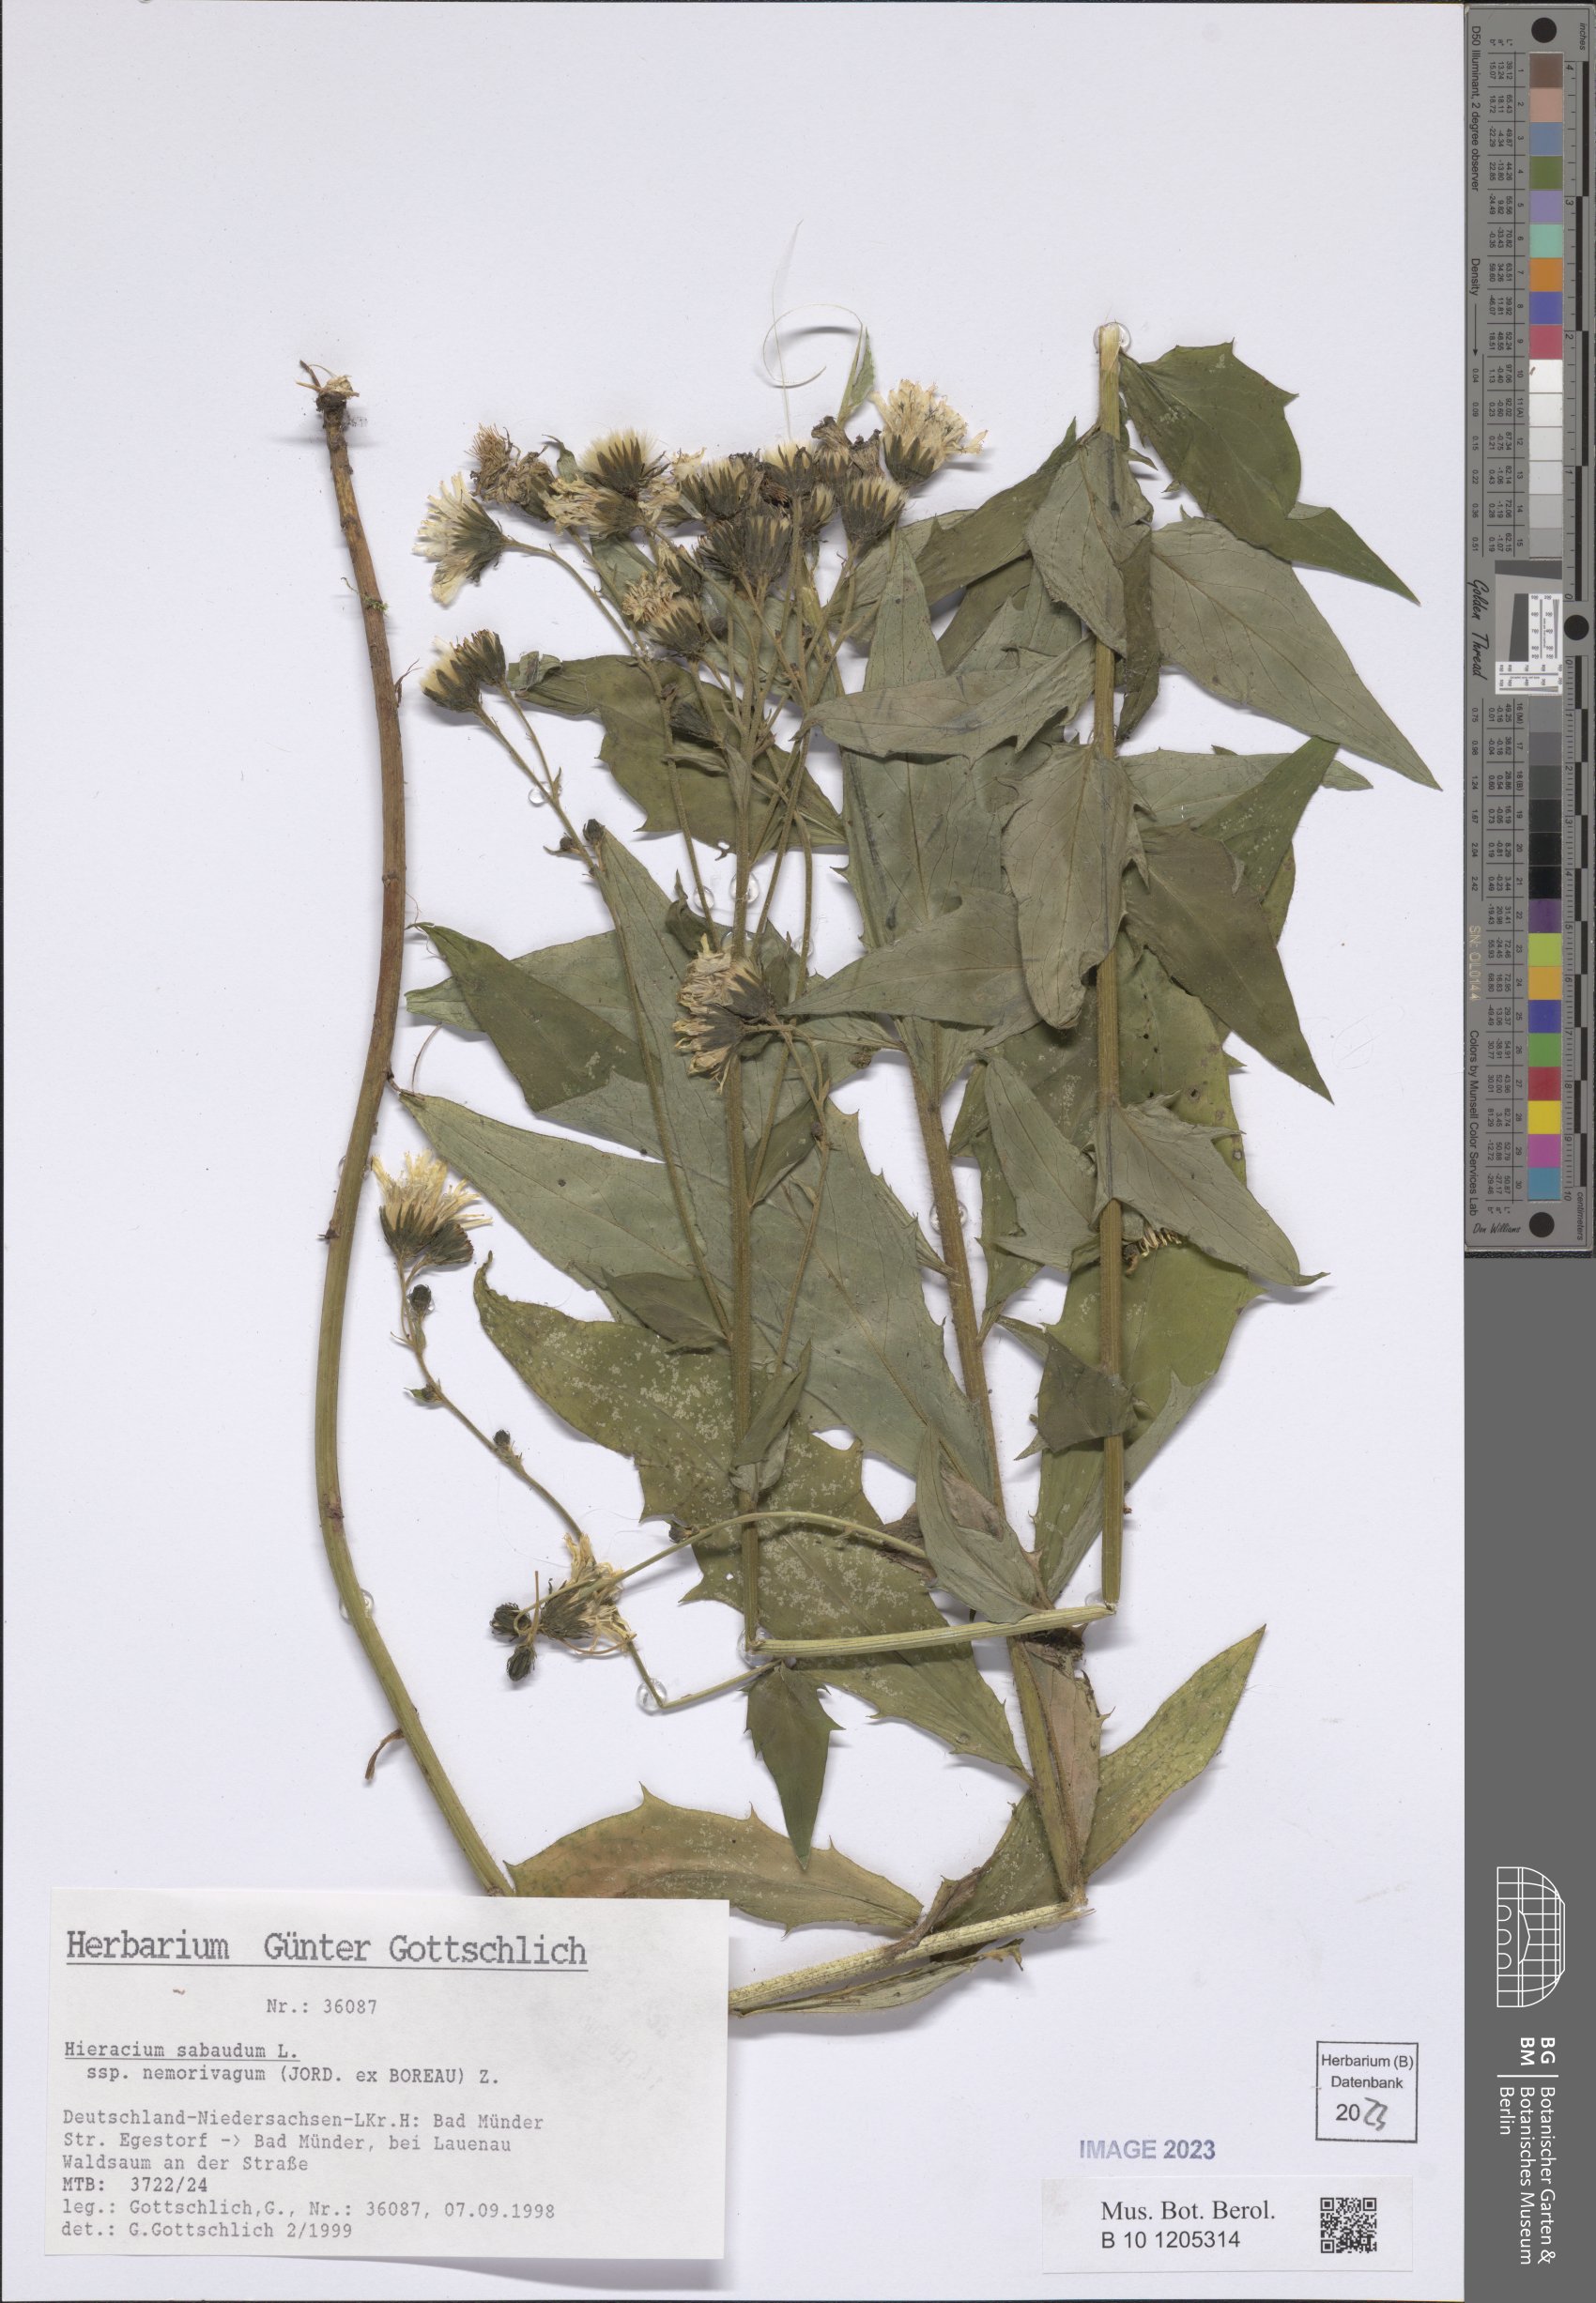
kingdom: Plantae
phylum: Tracheophyta
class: Magnoliopsida
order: Asterales
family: Asteraceae
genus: Hieracium
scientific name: Hieracium sabaudum
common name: New england hawkweed
